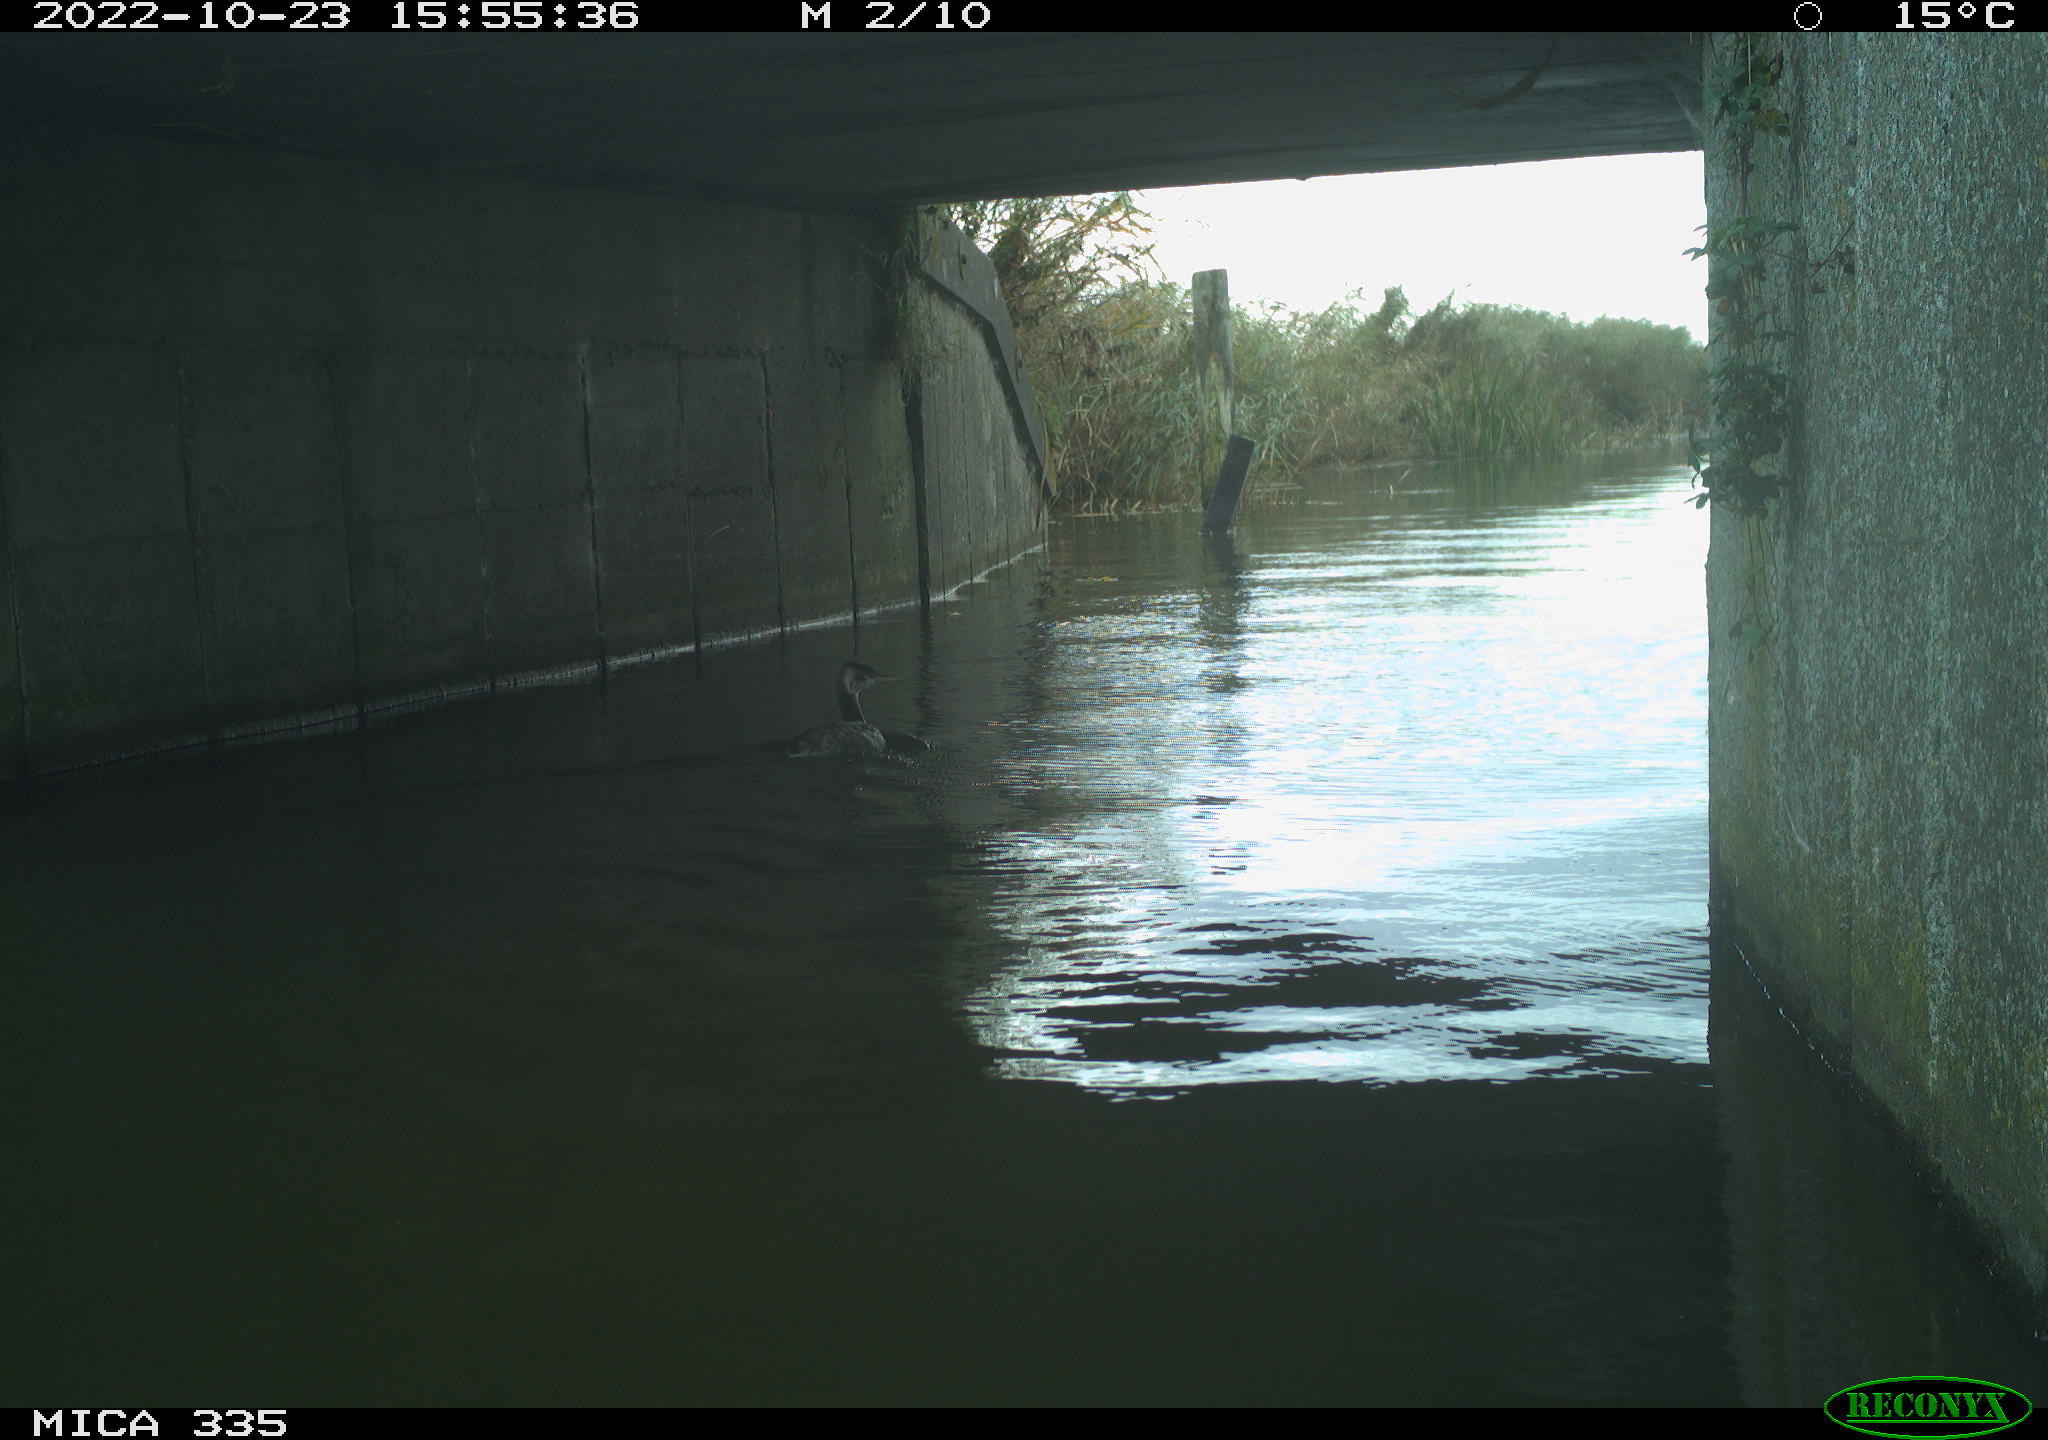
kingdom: Animalia
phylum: Chordata
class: Aves
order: Podicipediformes
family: Podicipedidae
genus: Podiceps
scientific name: Podiceps cristatus
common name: Great crested grebe
